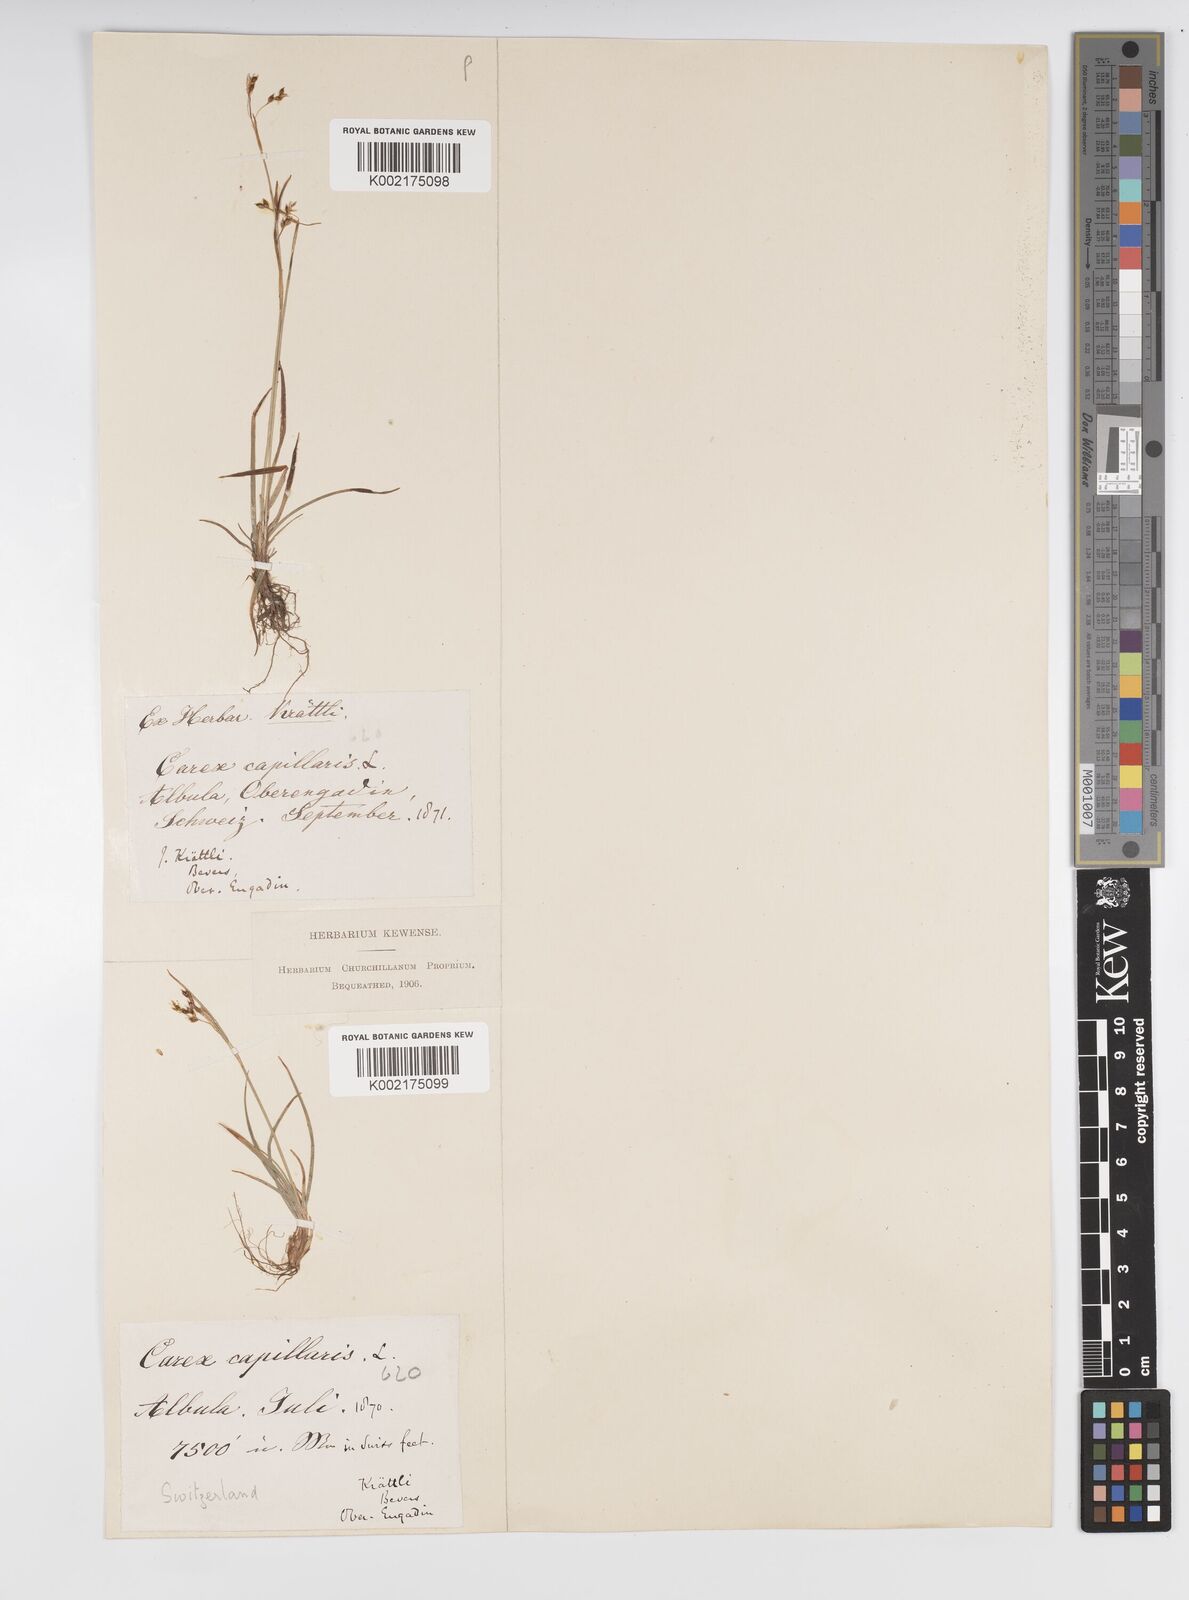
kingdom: Plantae
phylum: Tracheophyta
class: Liliopsida
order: Poales
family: Cyperaceae
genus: Carex
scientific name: Carex capillaris
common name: Hair sedge
